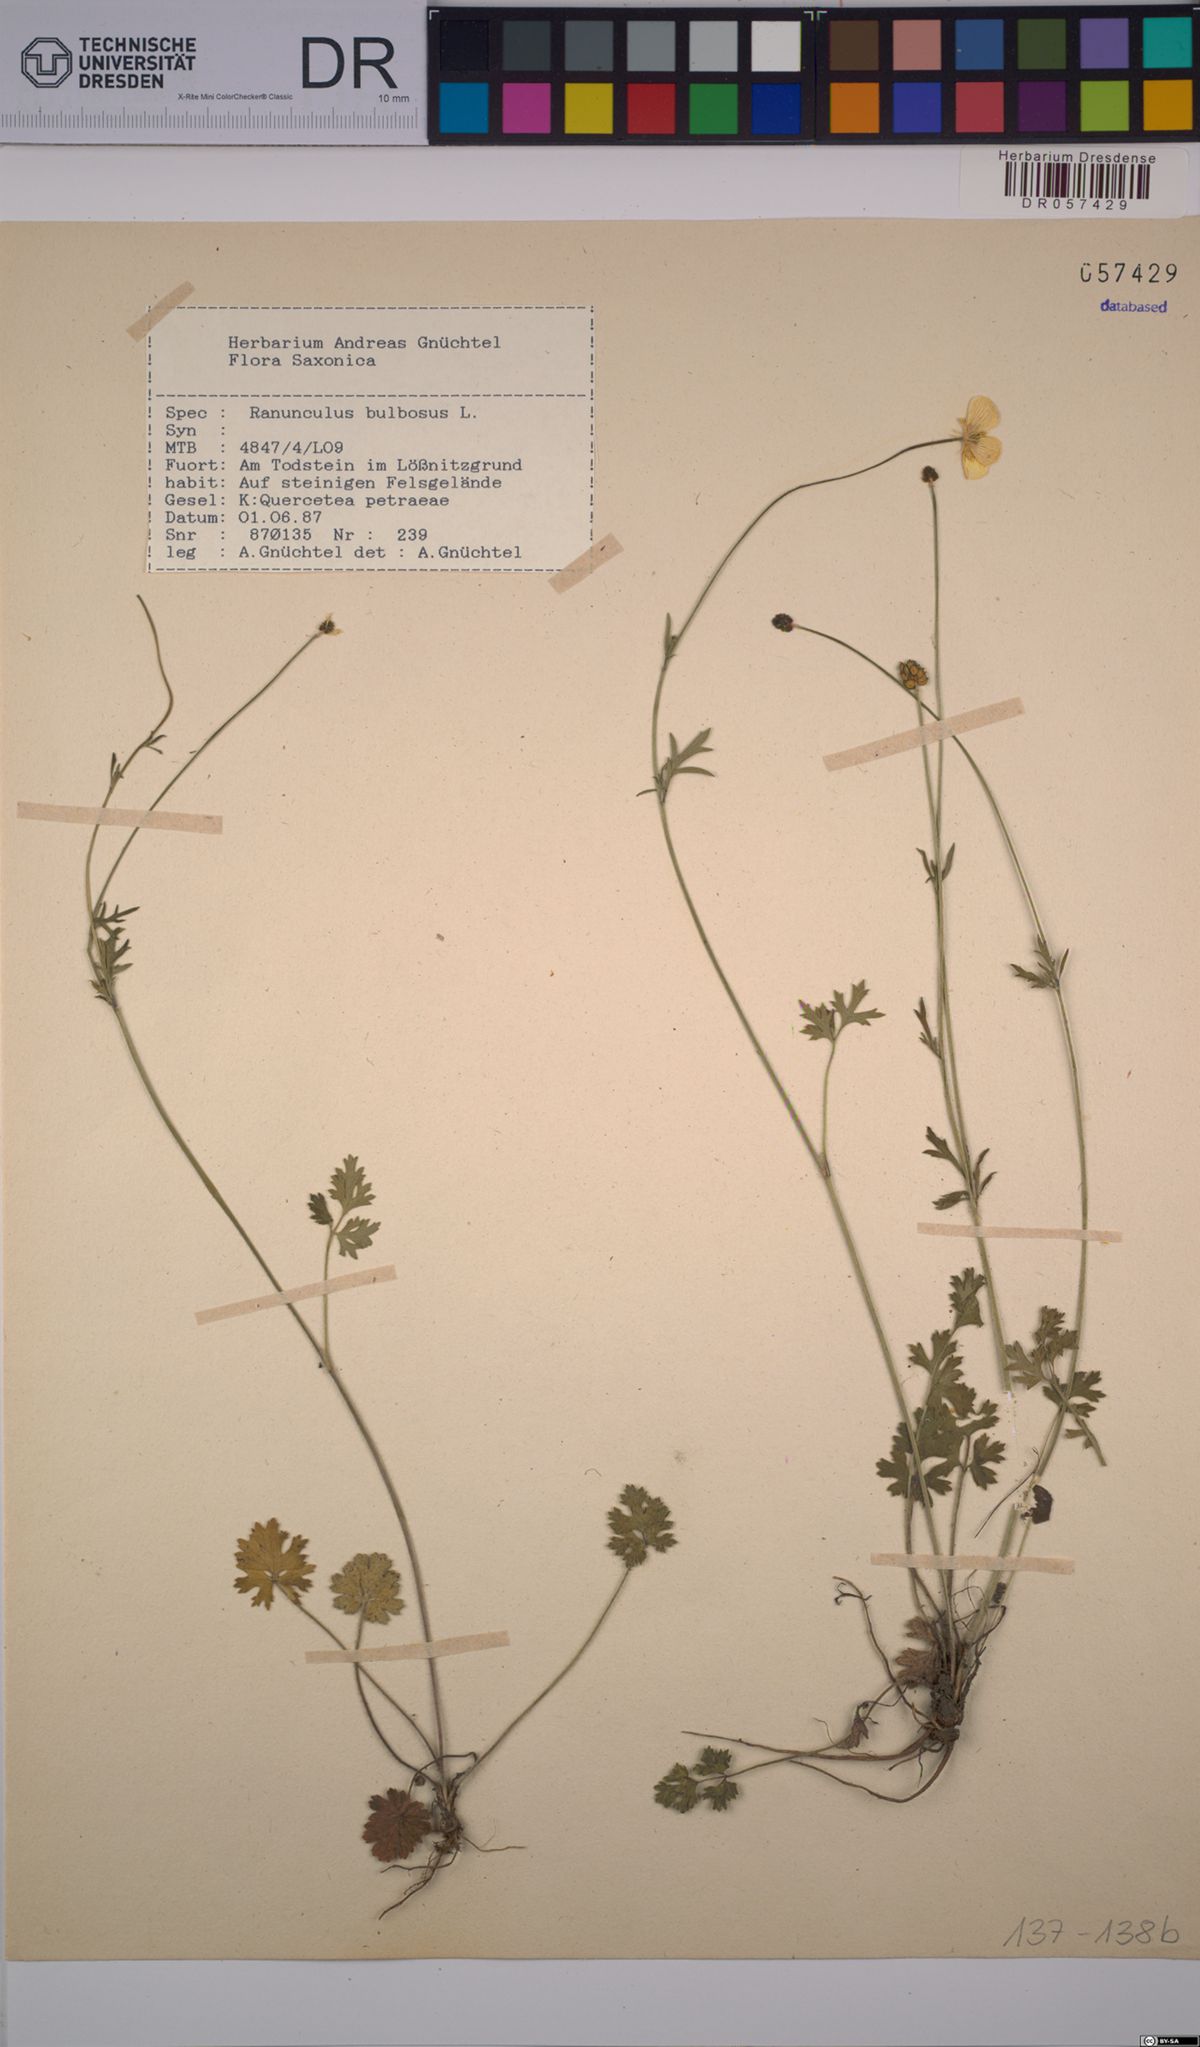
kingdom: Plantae
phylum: Tracheophyta
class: Magnoliopsida
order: Ranunculales
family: Ranunculaceae
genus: Ranunculus
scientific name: Ranunculus bulbosus
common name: Bulbous buttercup
